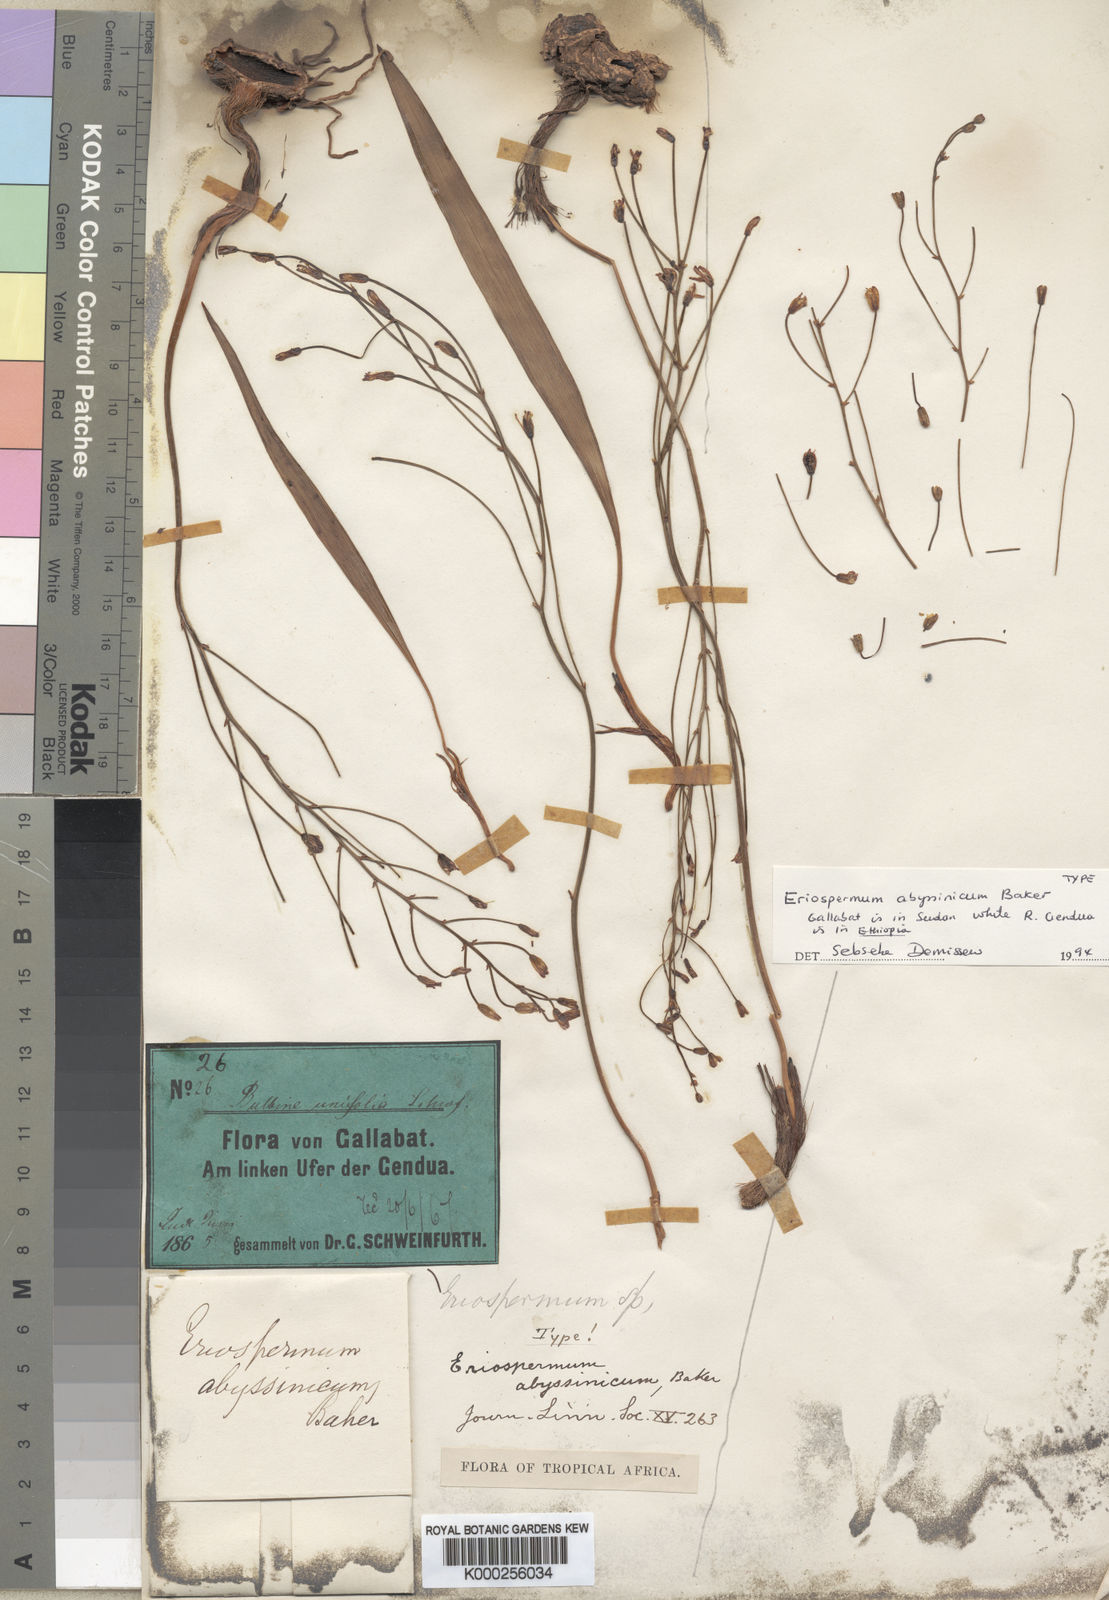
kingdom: Plantae
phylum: Tracheophyta
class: Liliopsida
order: Asparagales
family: Asparagaceae
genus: Eriospermum
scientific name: Eriospermum abyssinicum
